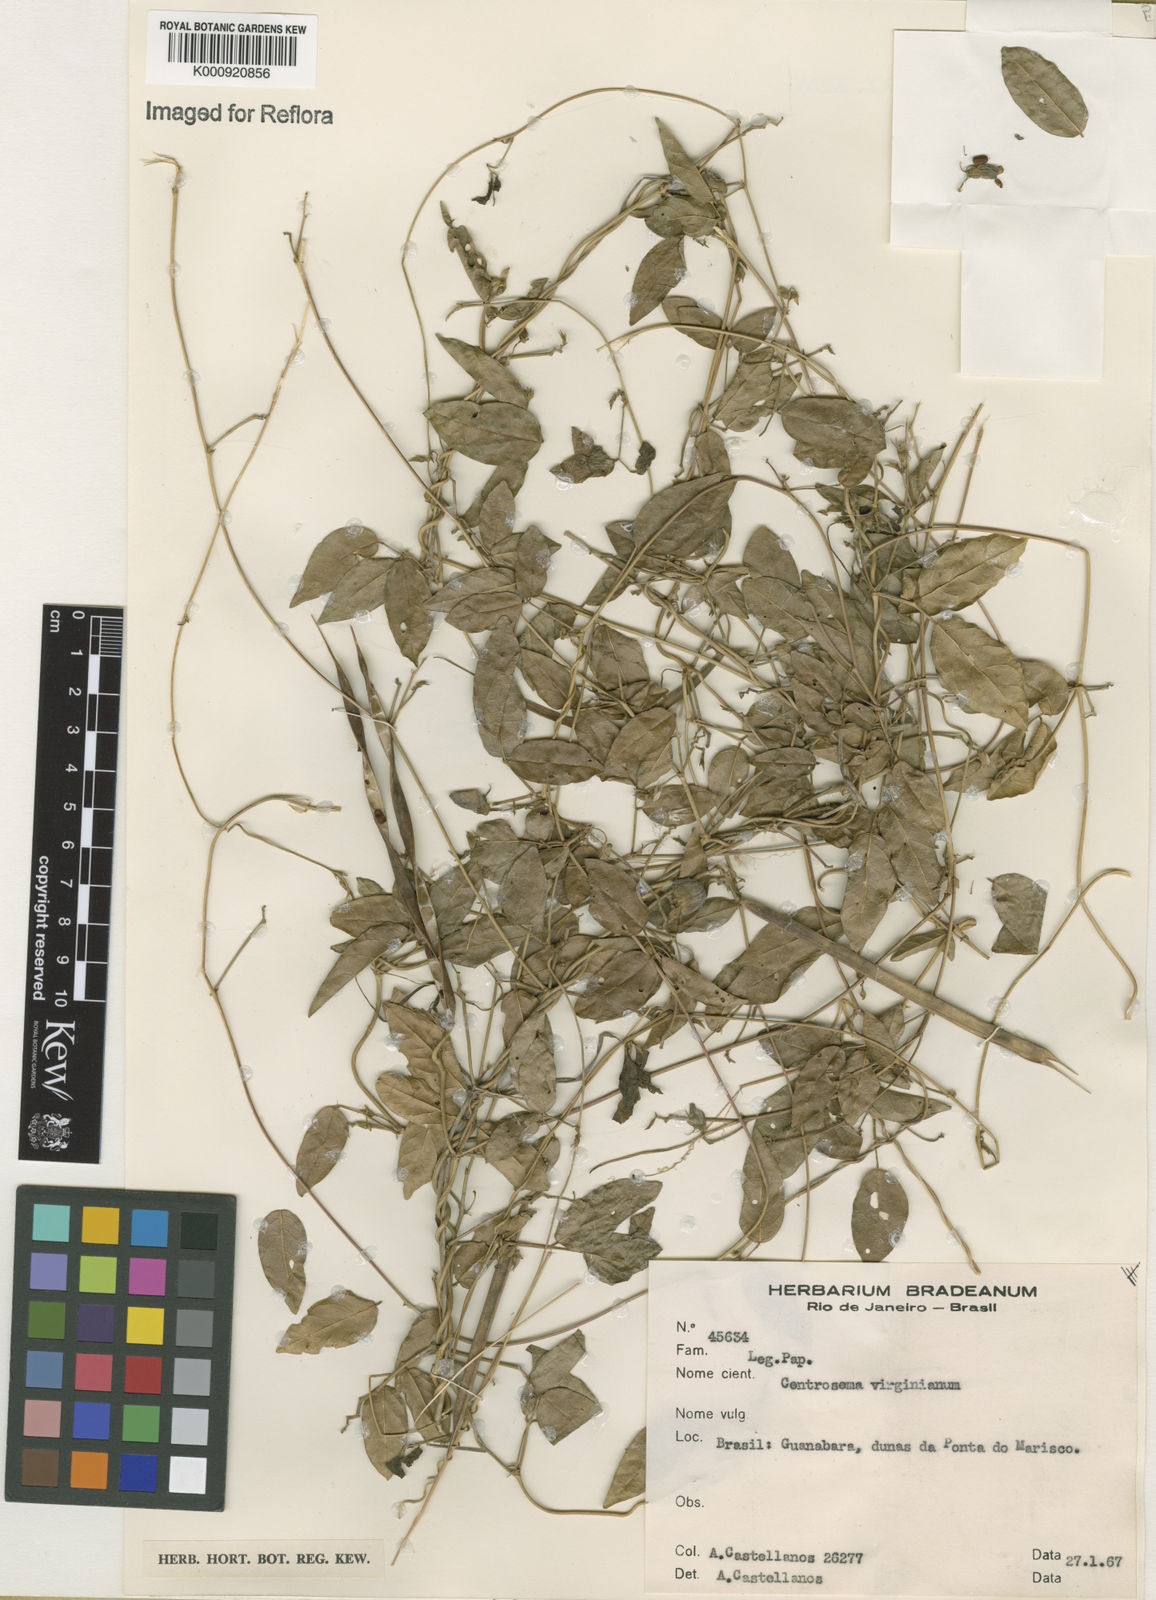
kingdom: Plantae
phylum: Tracheophyta
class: Magnoliopsida
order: Fabales
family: Fabaceae
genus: Centrosema
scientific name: Centrosema virginianum
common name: Butterfly-pea
